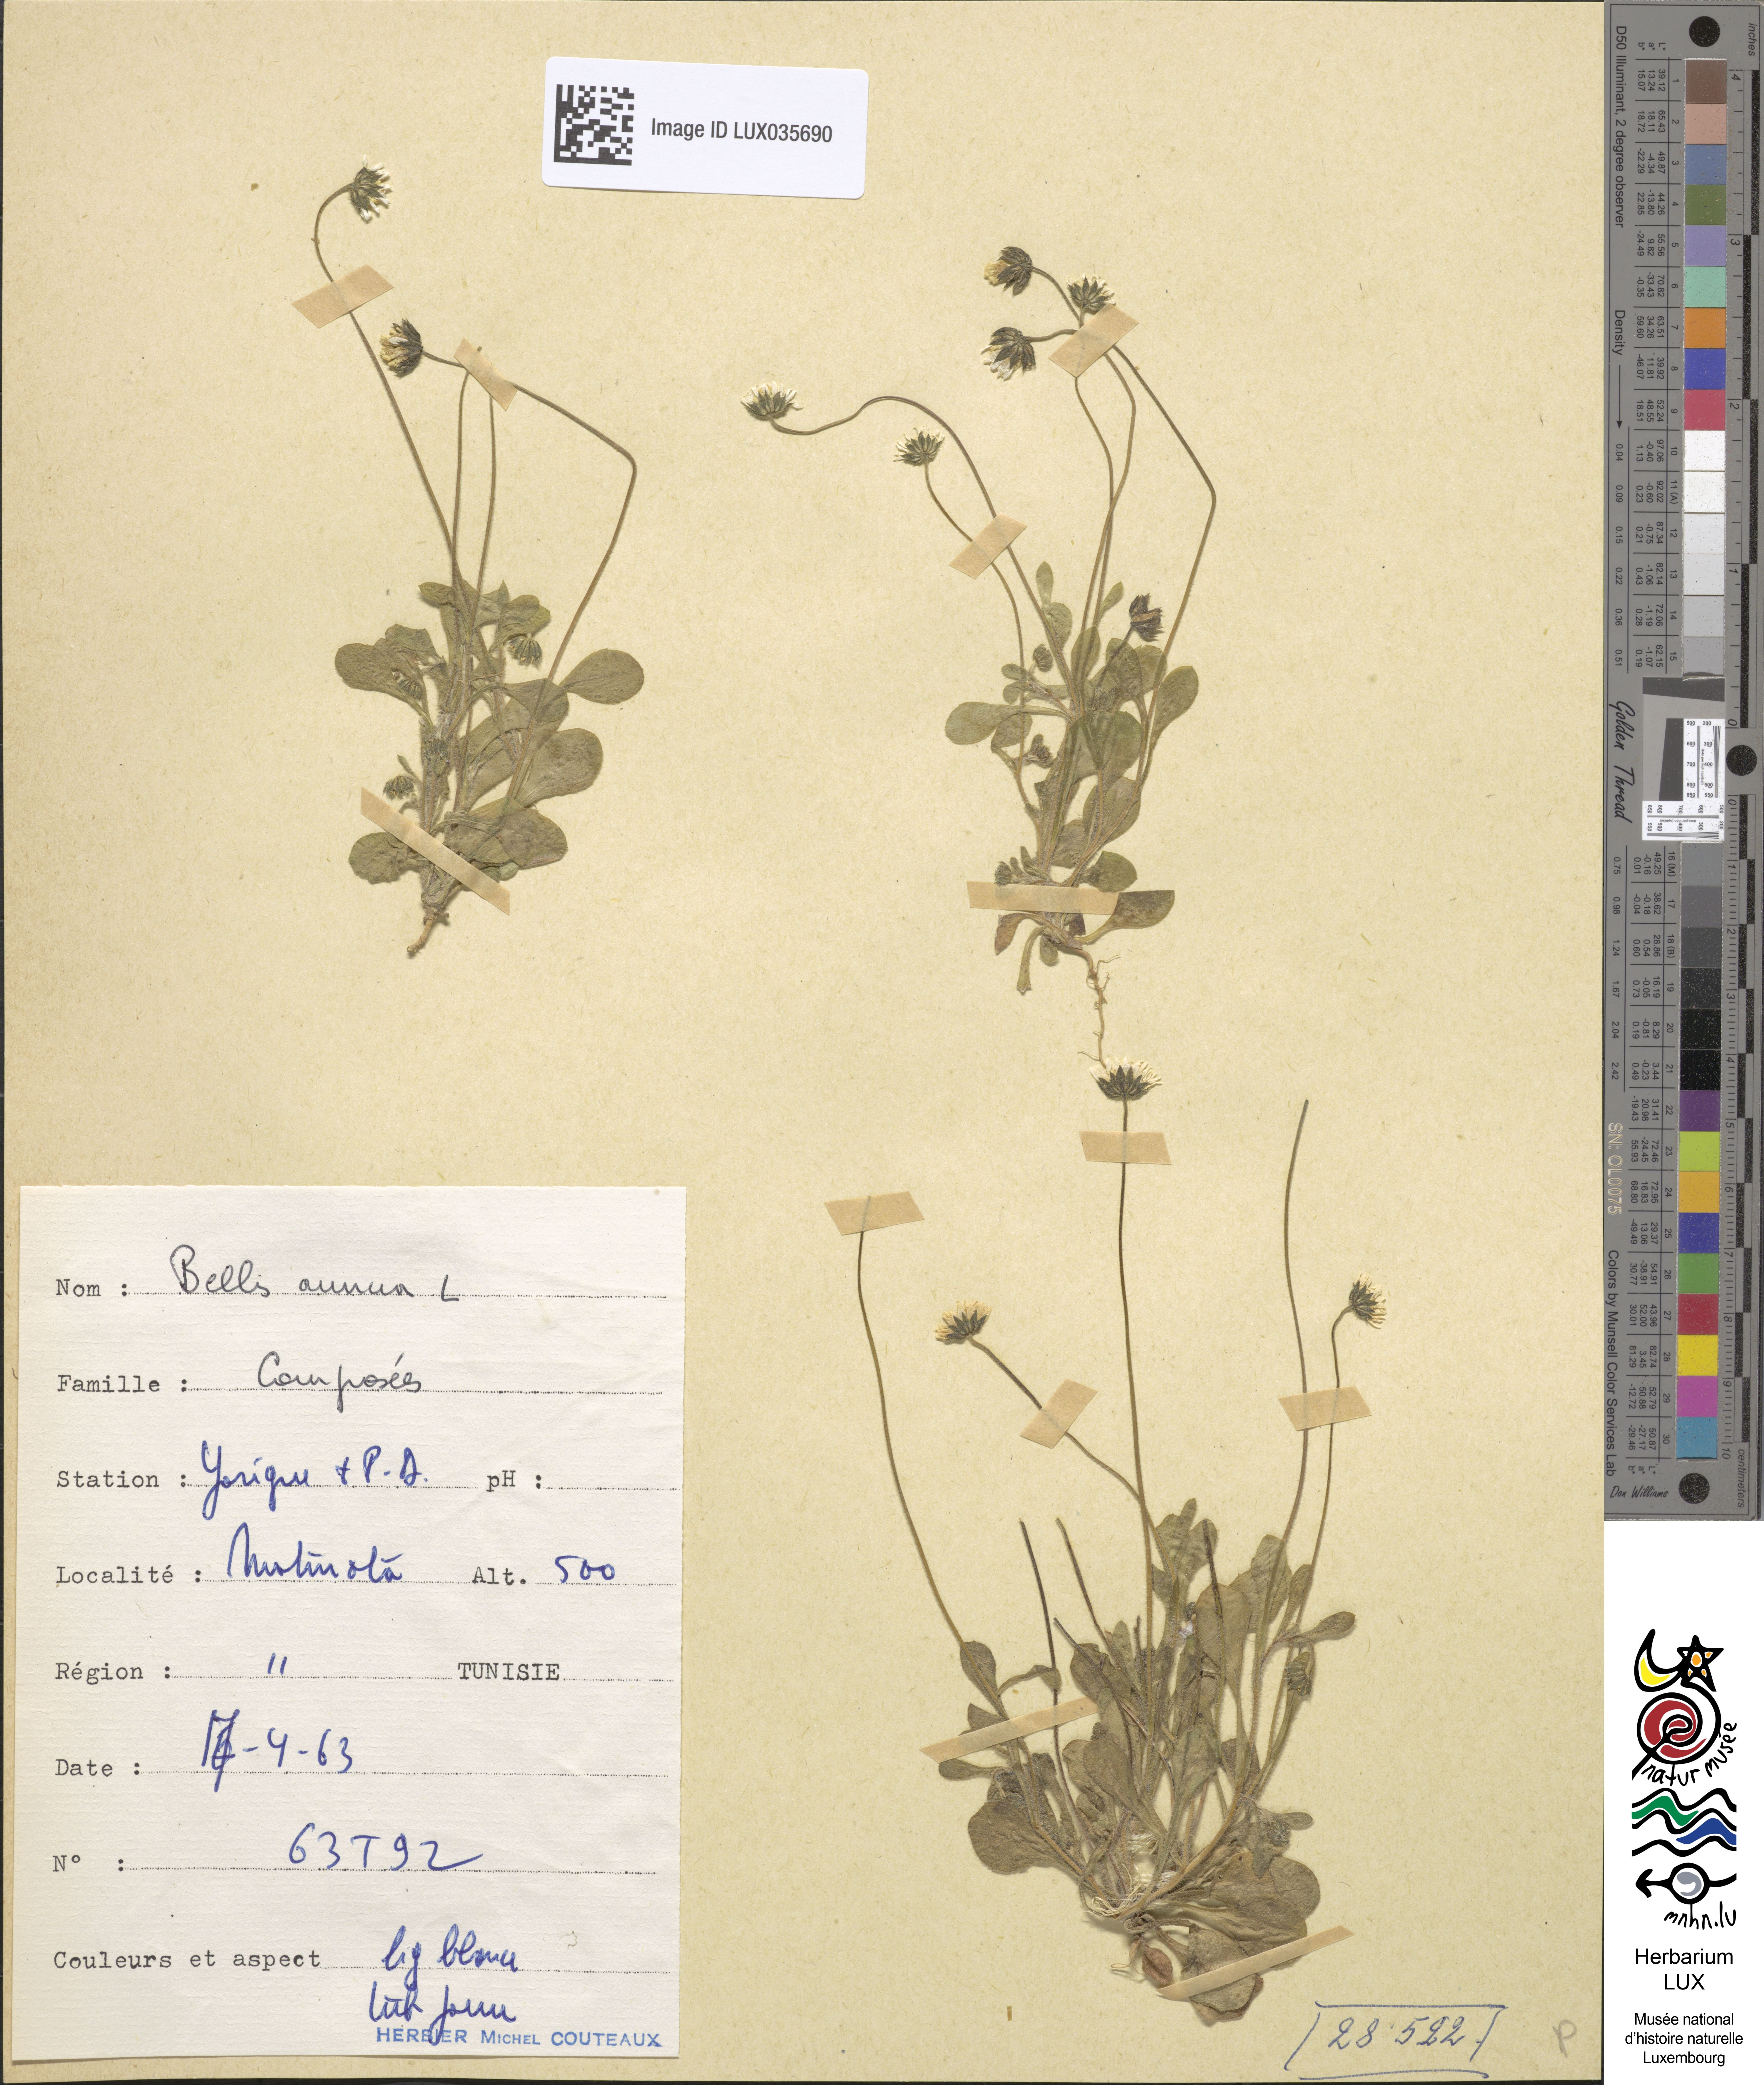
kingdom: Plantae
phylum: Tracheophyta
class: Magnoliopsida
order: Asterales
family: Asteraceae
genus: Bellis
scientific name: Bellis annua
